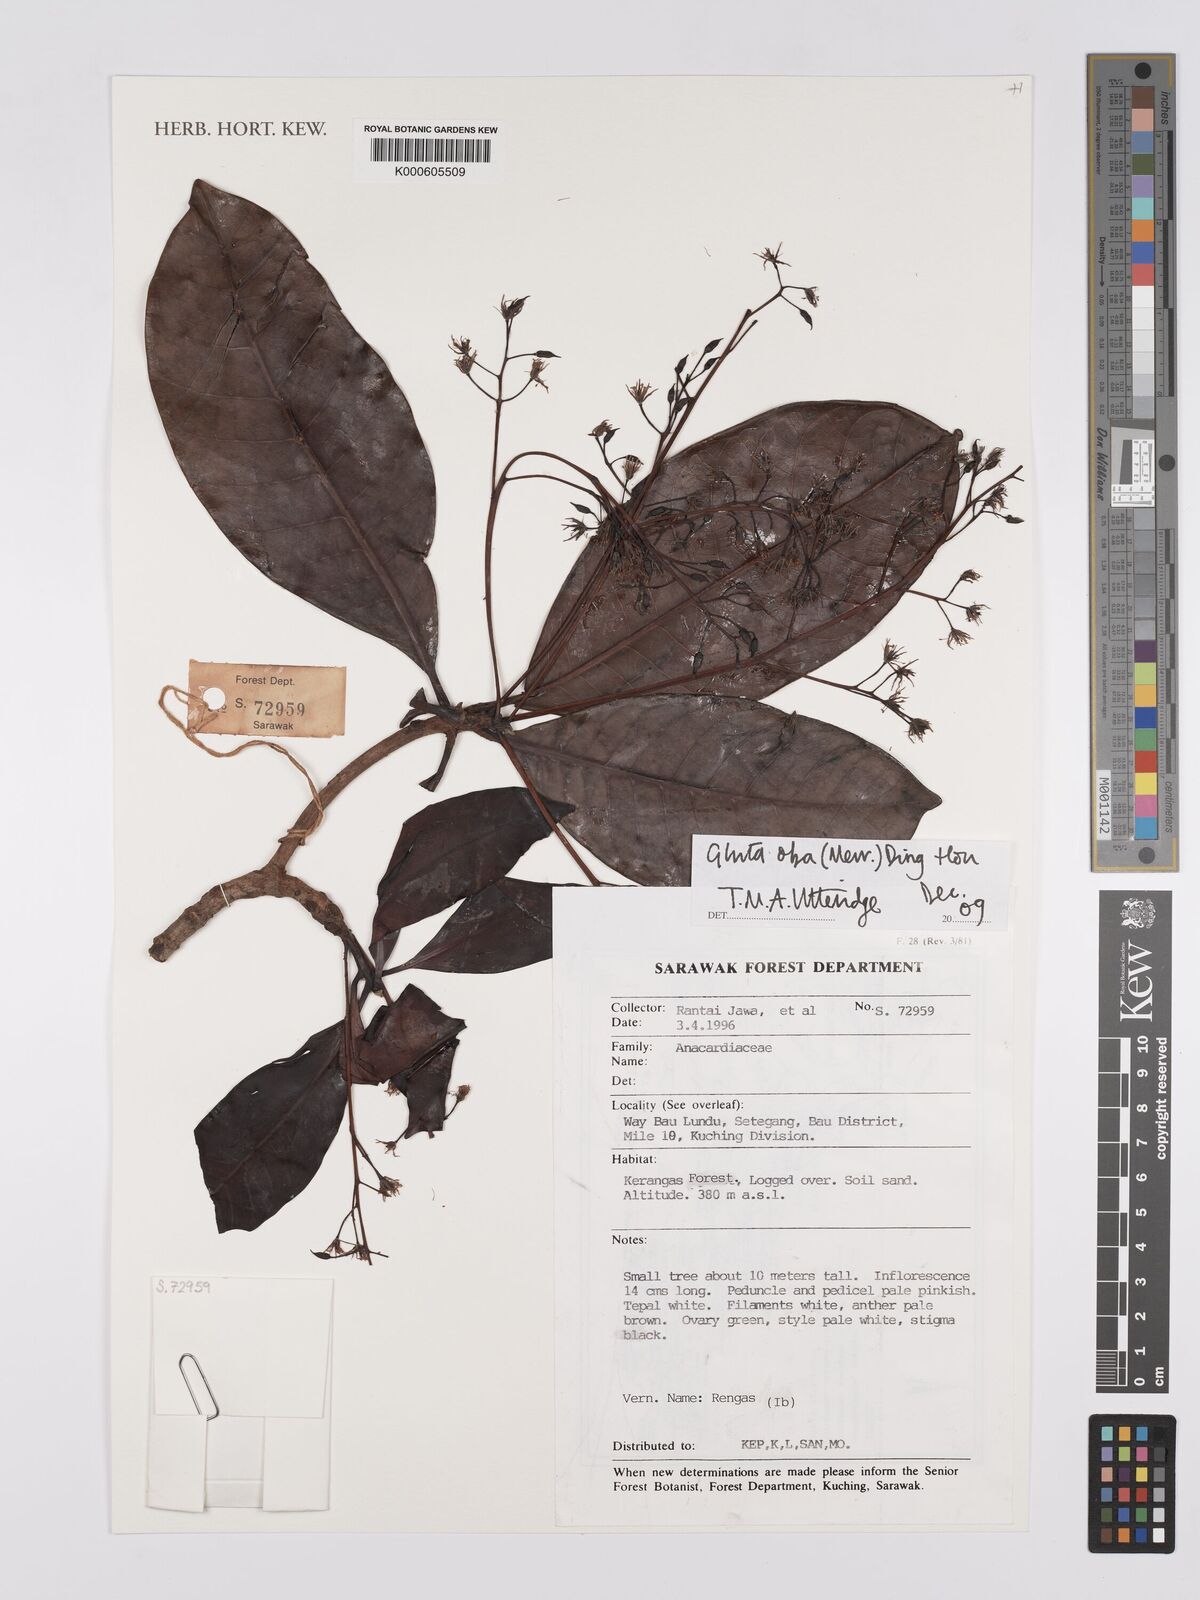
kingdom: Plantae
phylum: Tracheophyta
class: Magnoliopsida
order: Sapindales
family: Anacardiaceae
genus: Gluta
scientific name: Gluta oba
